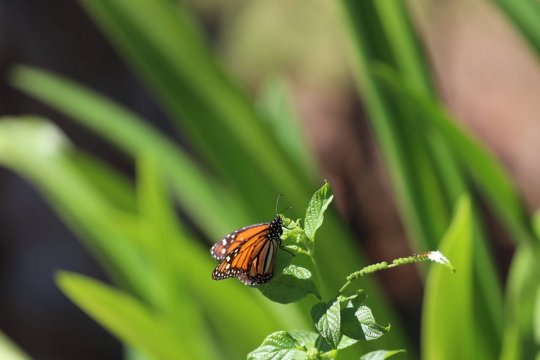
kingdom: Animalia
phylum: Arthropoda
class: Insecta
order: Lepidoptera
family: Nymphalidae
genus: Danaus
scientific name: Danaus plexippus
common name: Monarch
